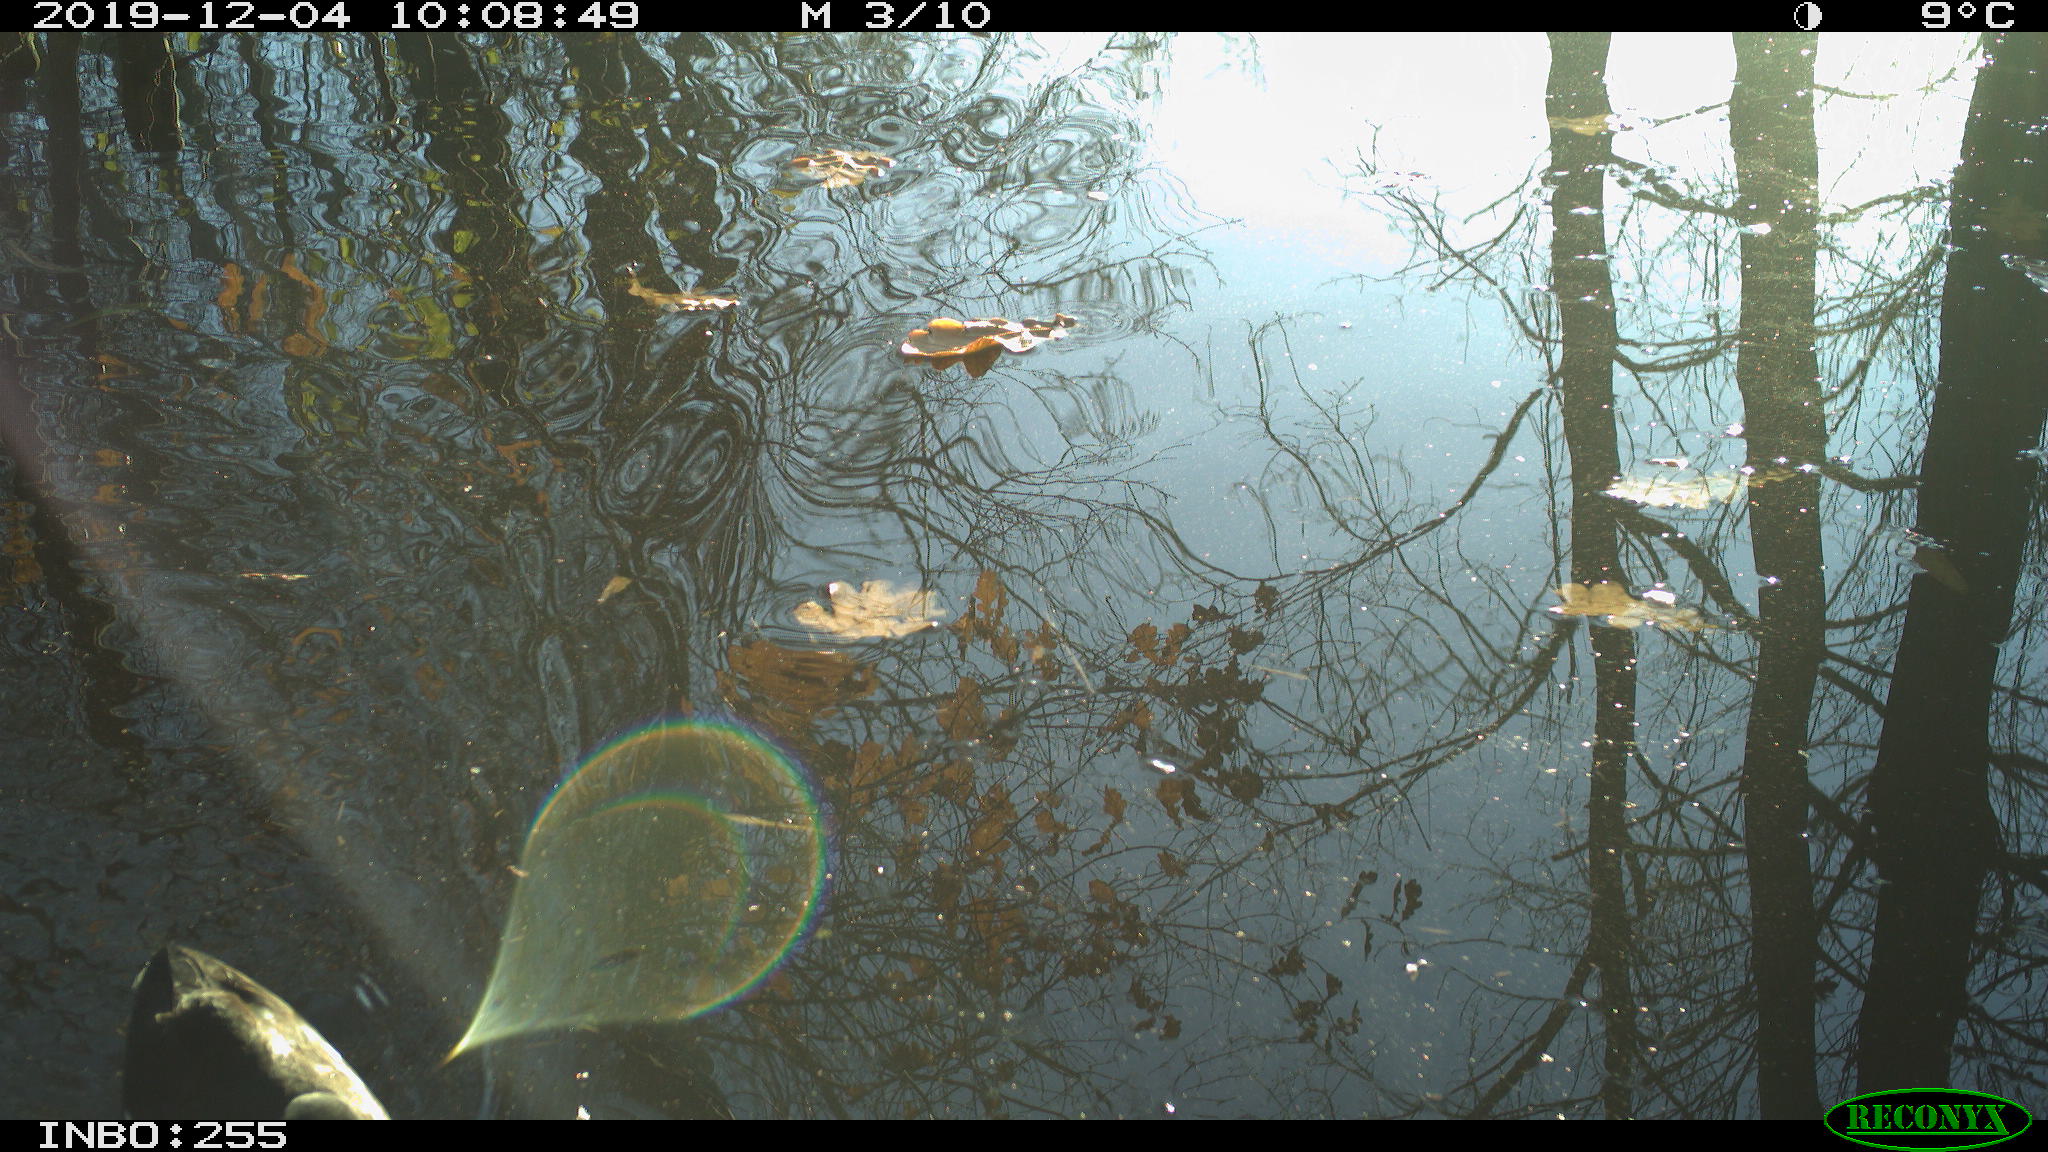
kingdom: Animalia
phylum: Chordata
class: Aves
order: Gruiformes
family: Rallidae
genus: Gallinula
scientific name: Gallinula chloropus
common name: Common moorhen
